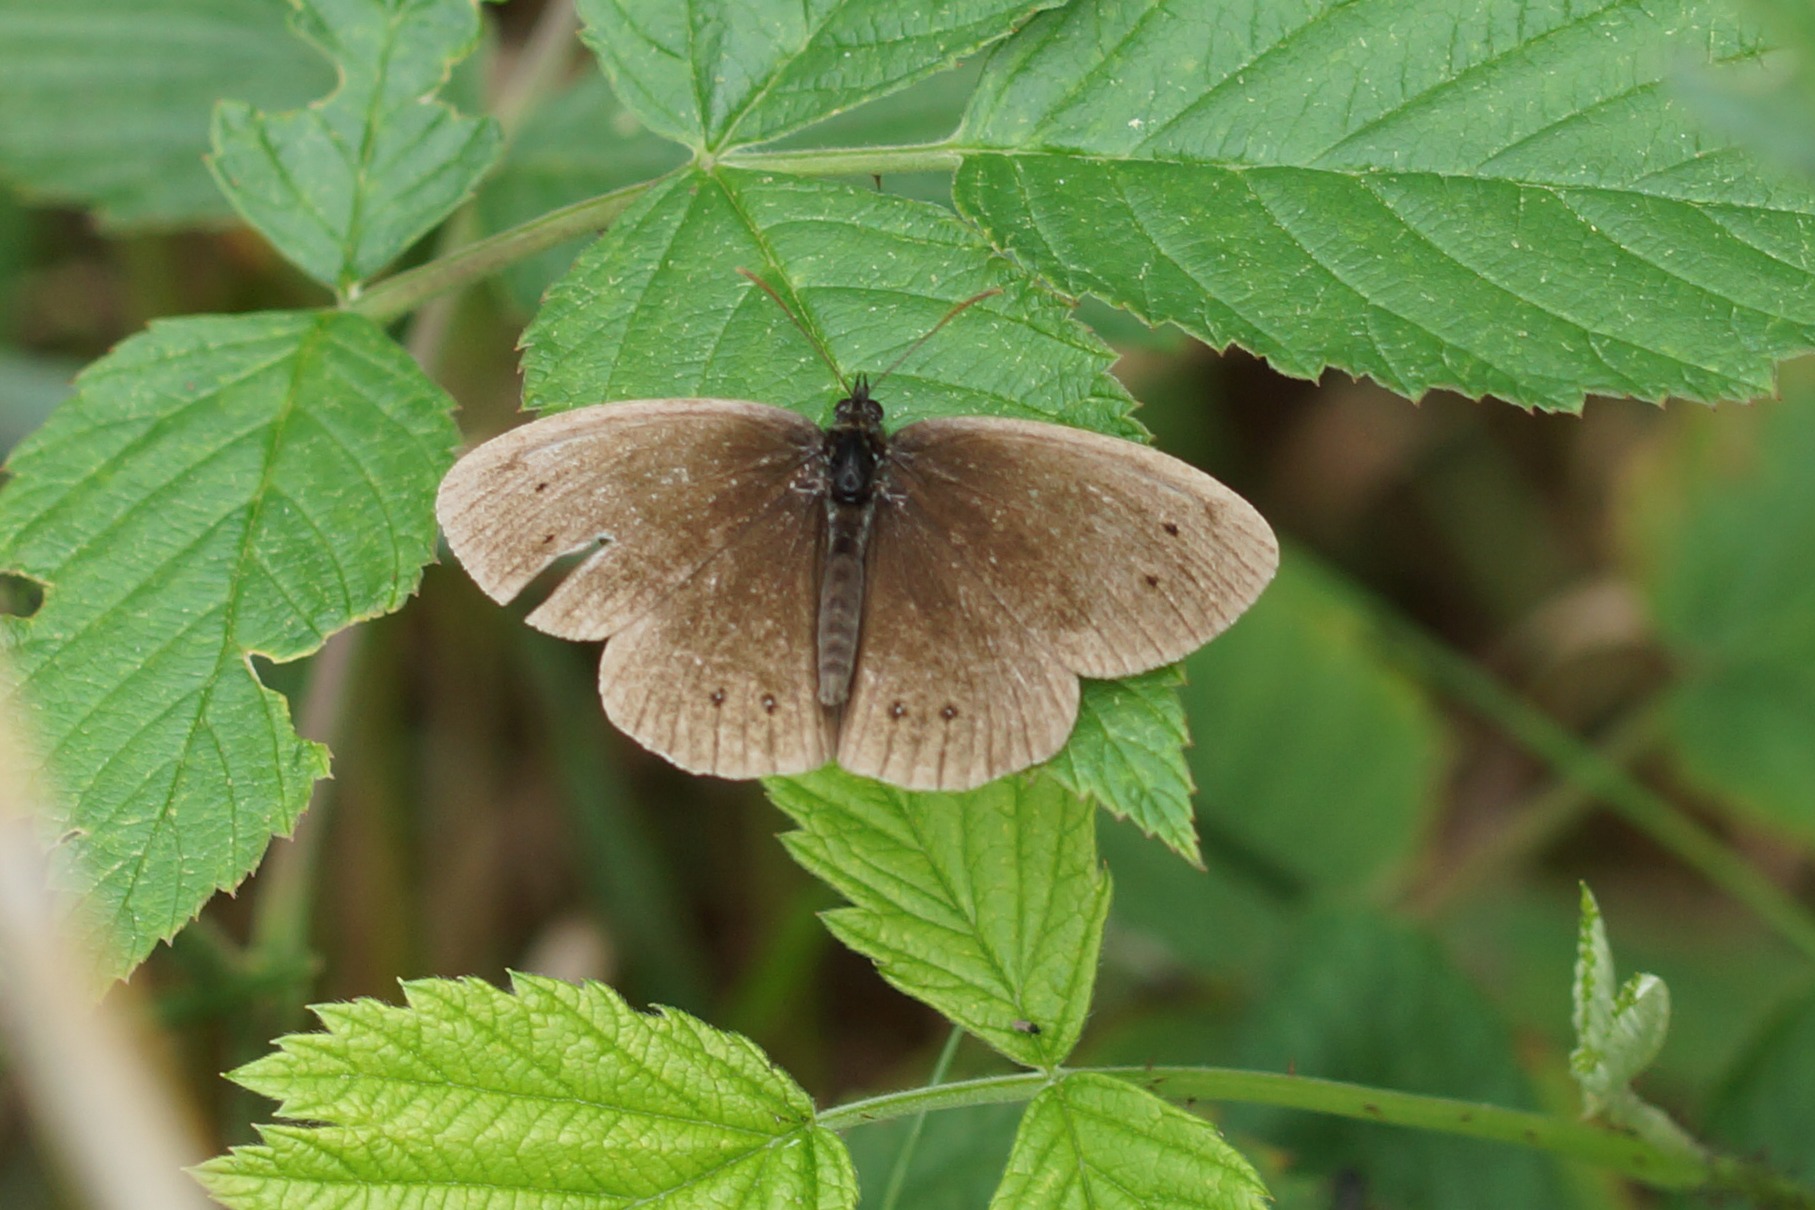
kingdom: Animalia
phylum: Arthropoda
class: Insecta
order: Lepidoptera
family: Nymphalidae
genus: Aphantopus
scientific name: Aphantopus hyperantus
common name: Engrandøje
